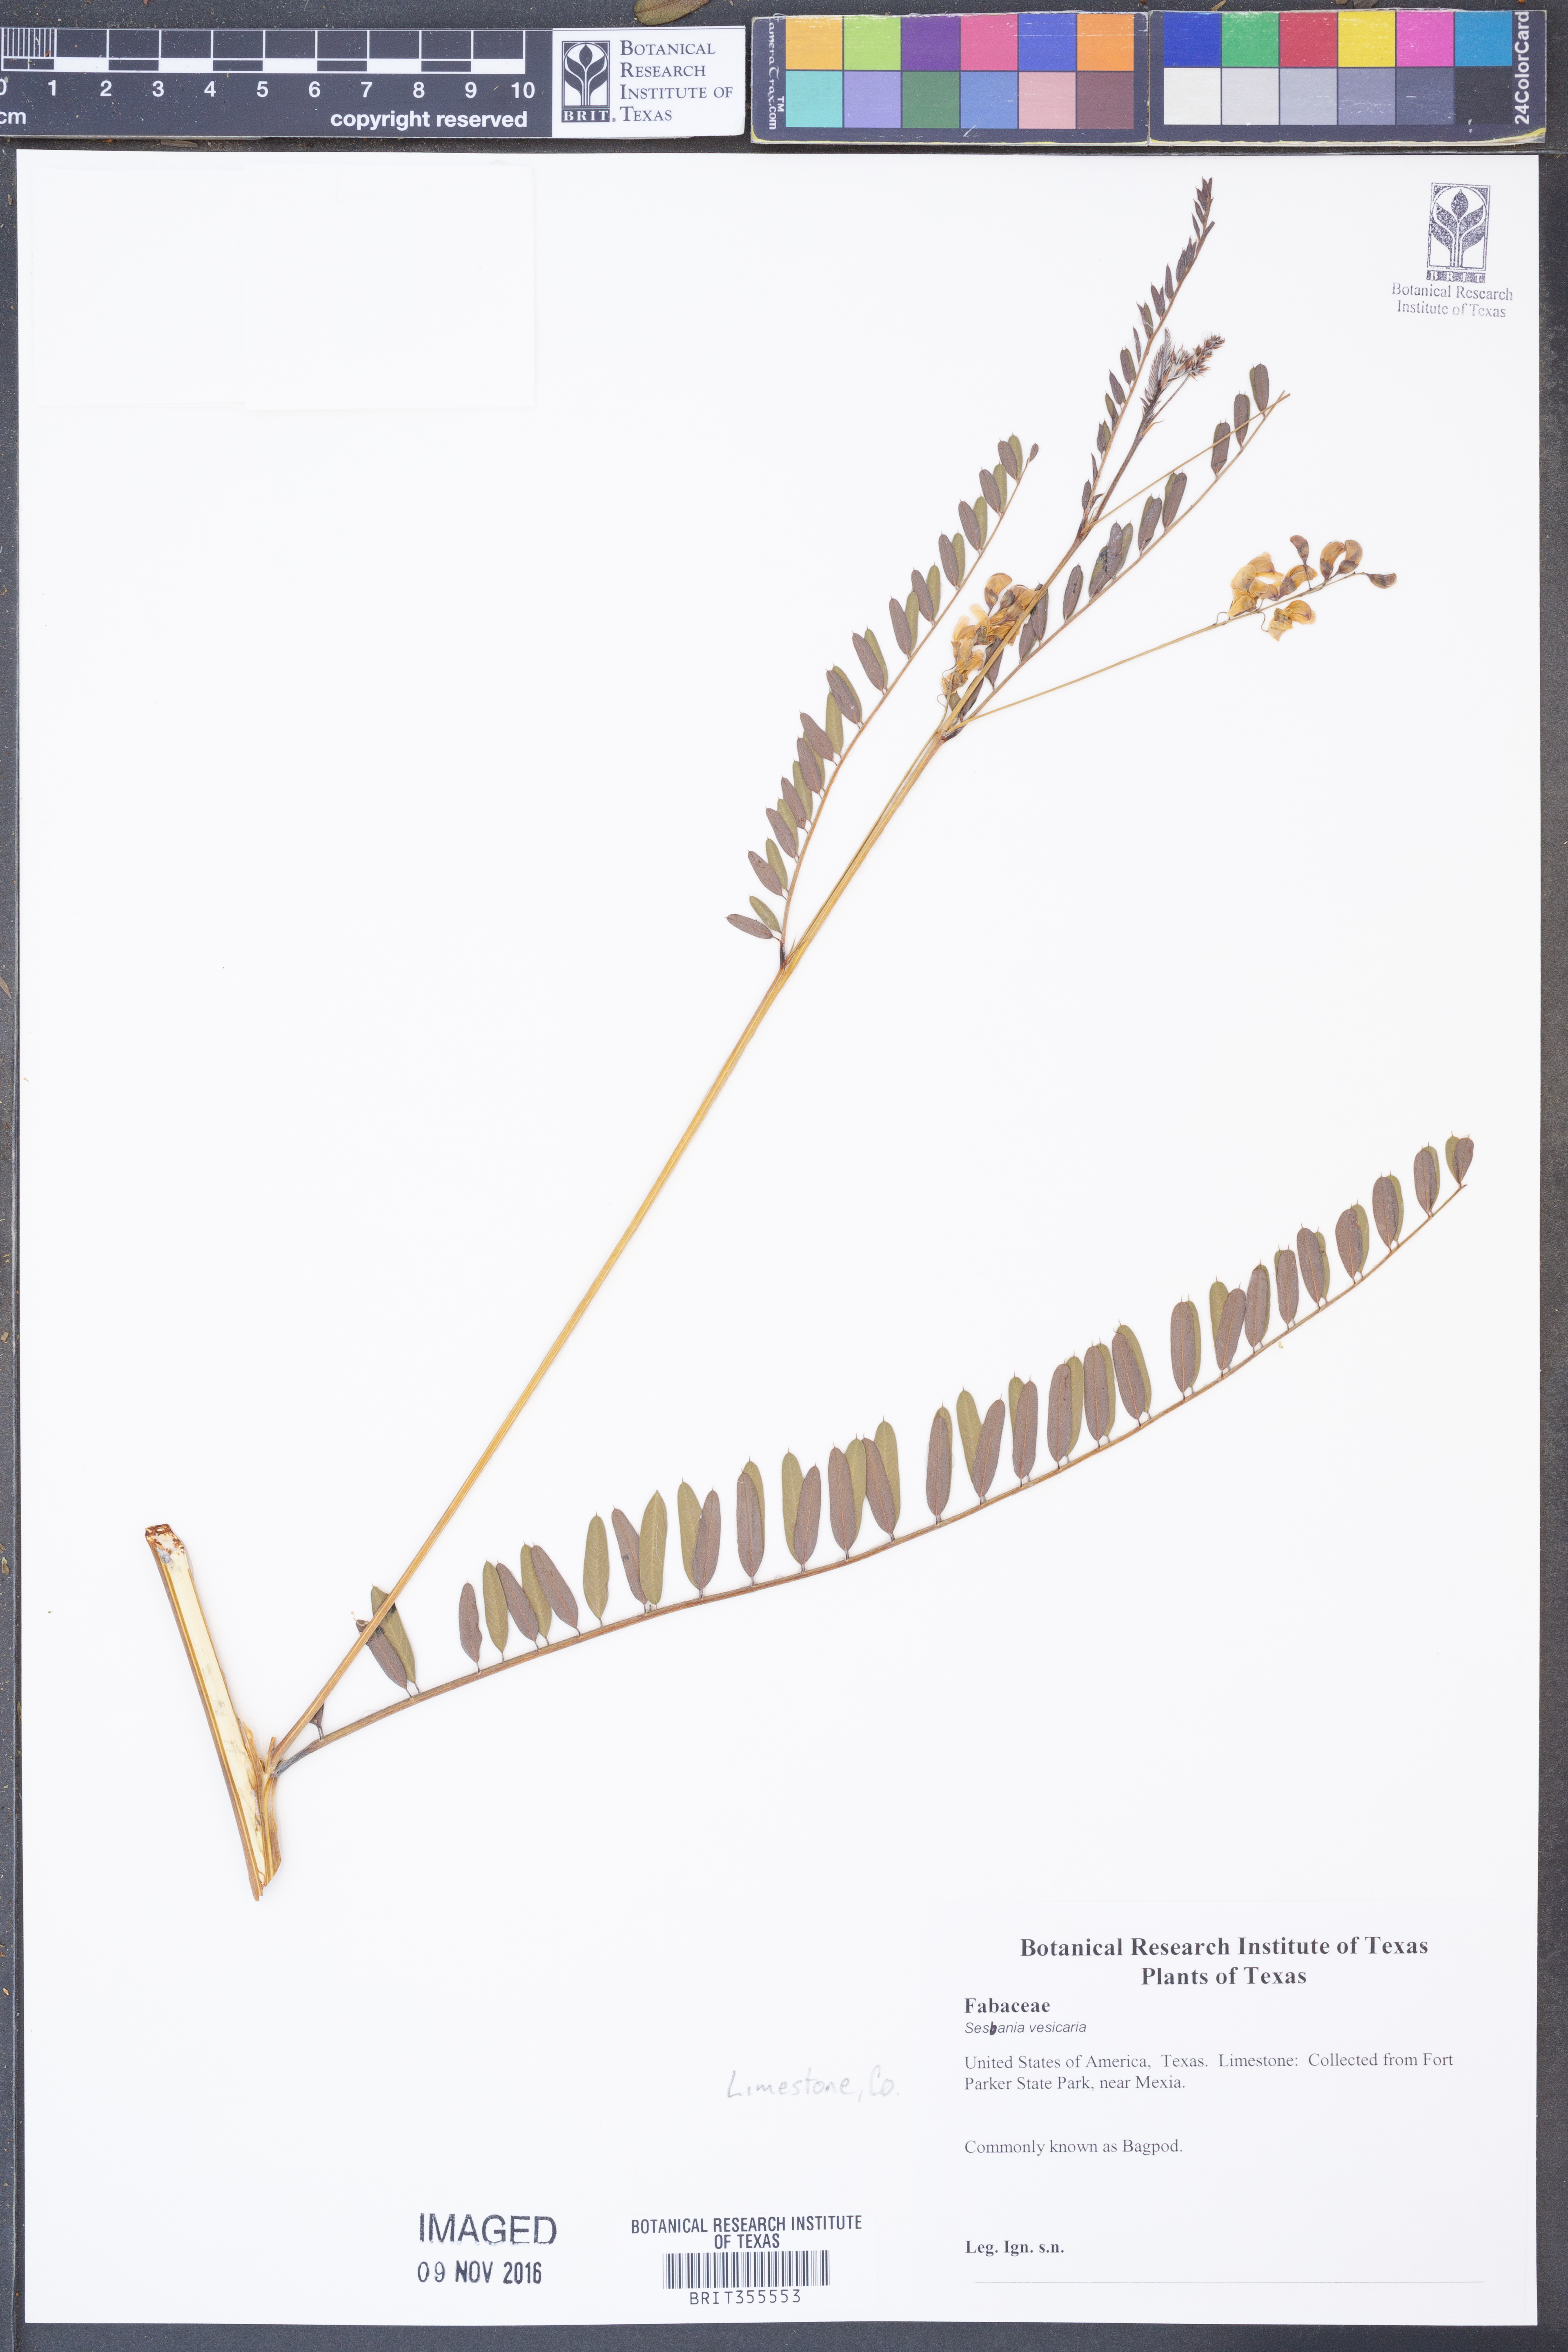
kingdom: Plantae
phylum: Tracheophyta
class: Magnoliopsida
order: Fabales
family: Fabaceae
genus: Sesbania
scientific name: Sesbania vesicaria
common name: Bagpod
